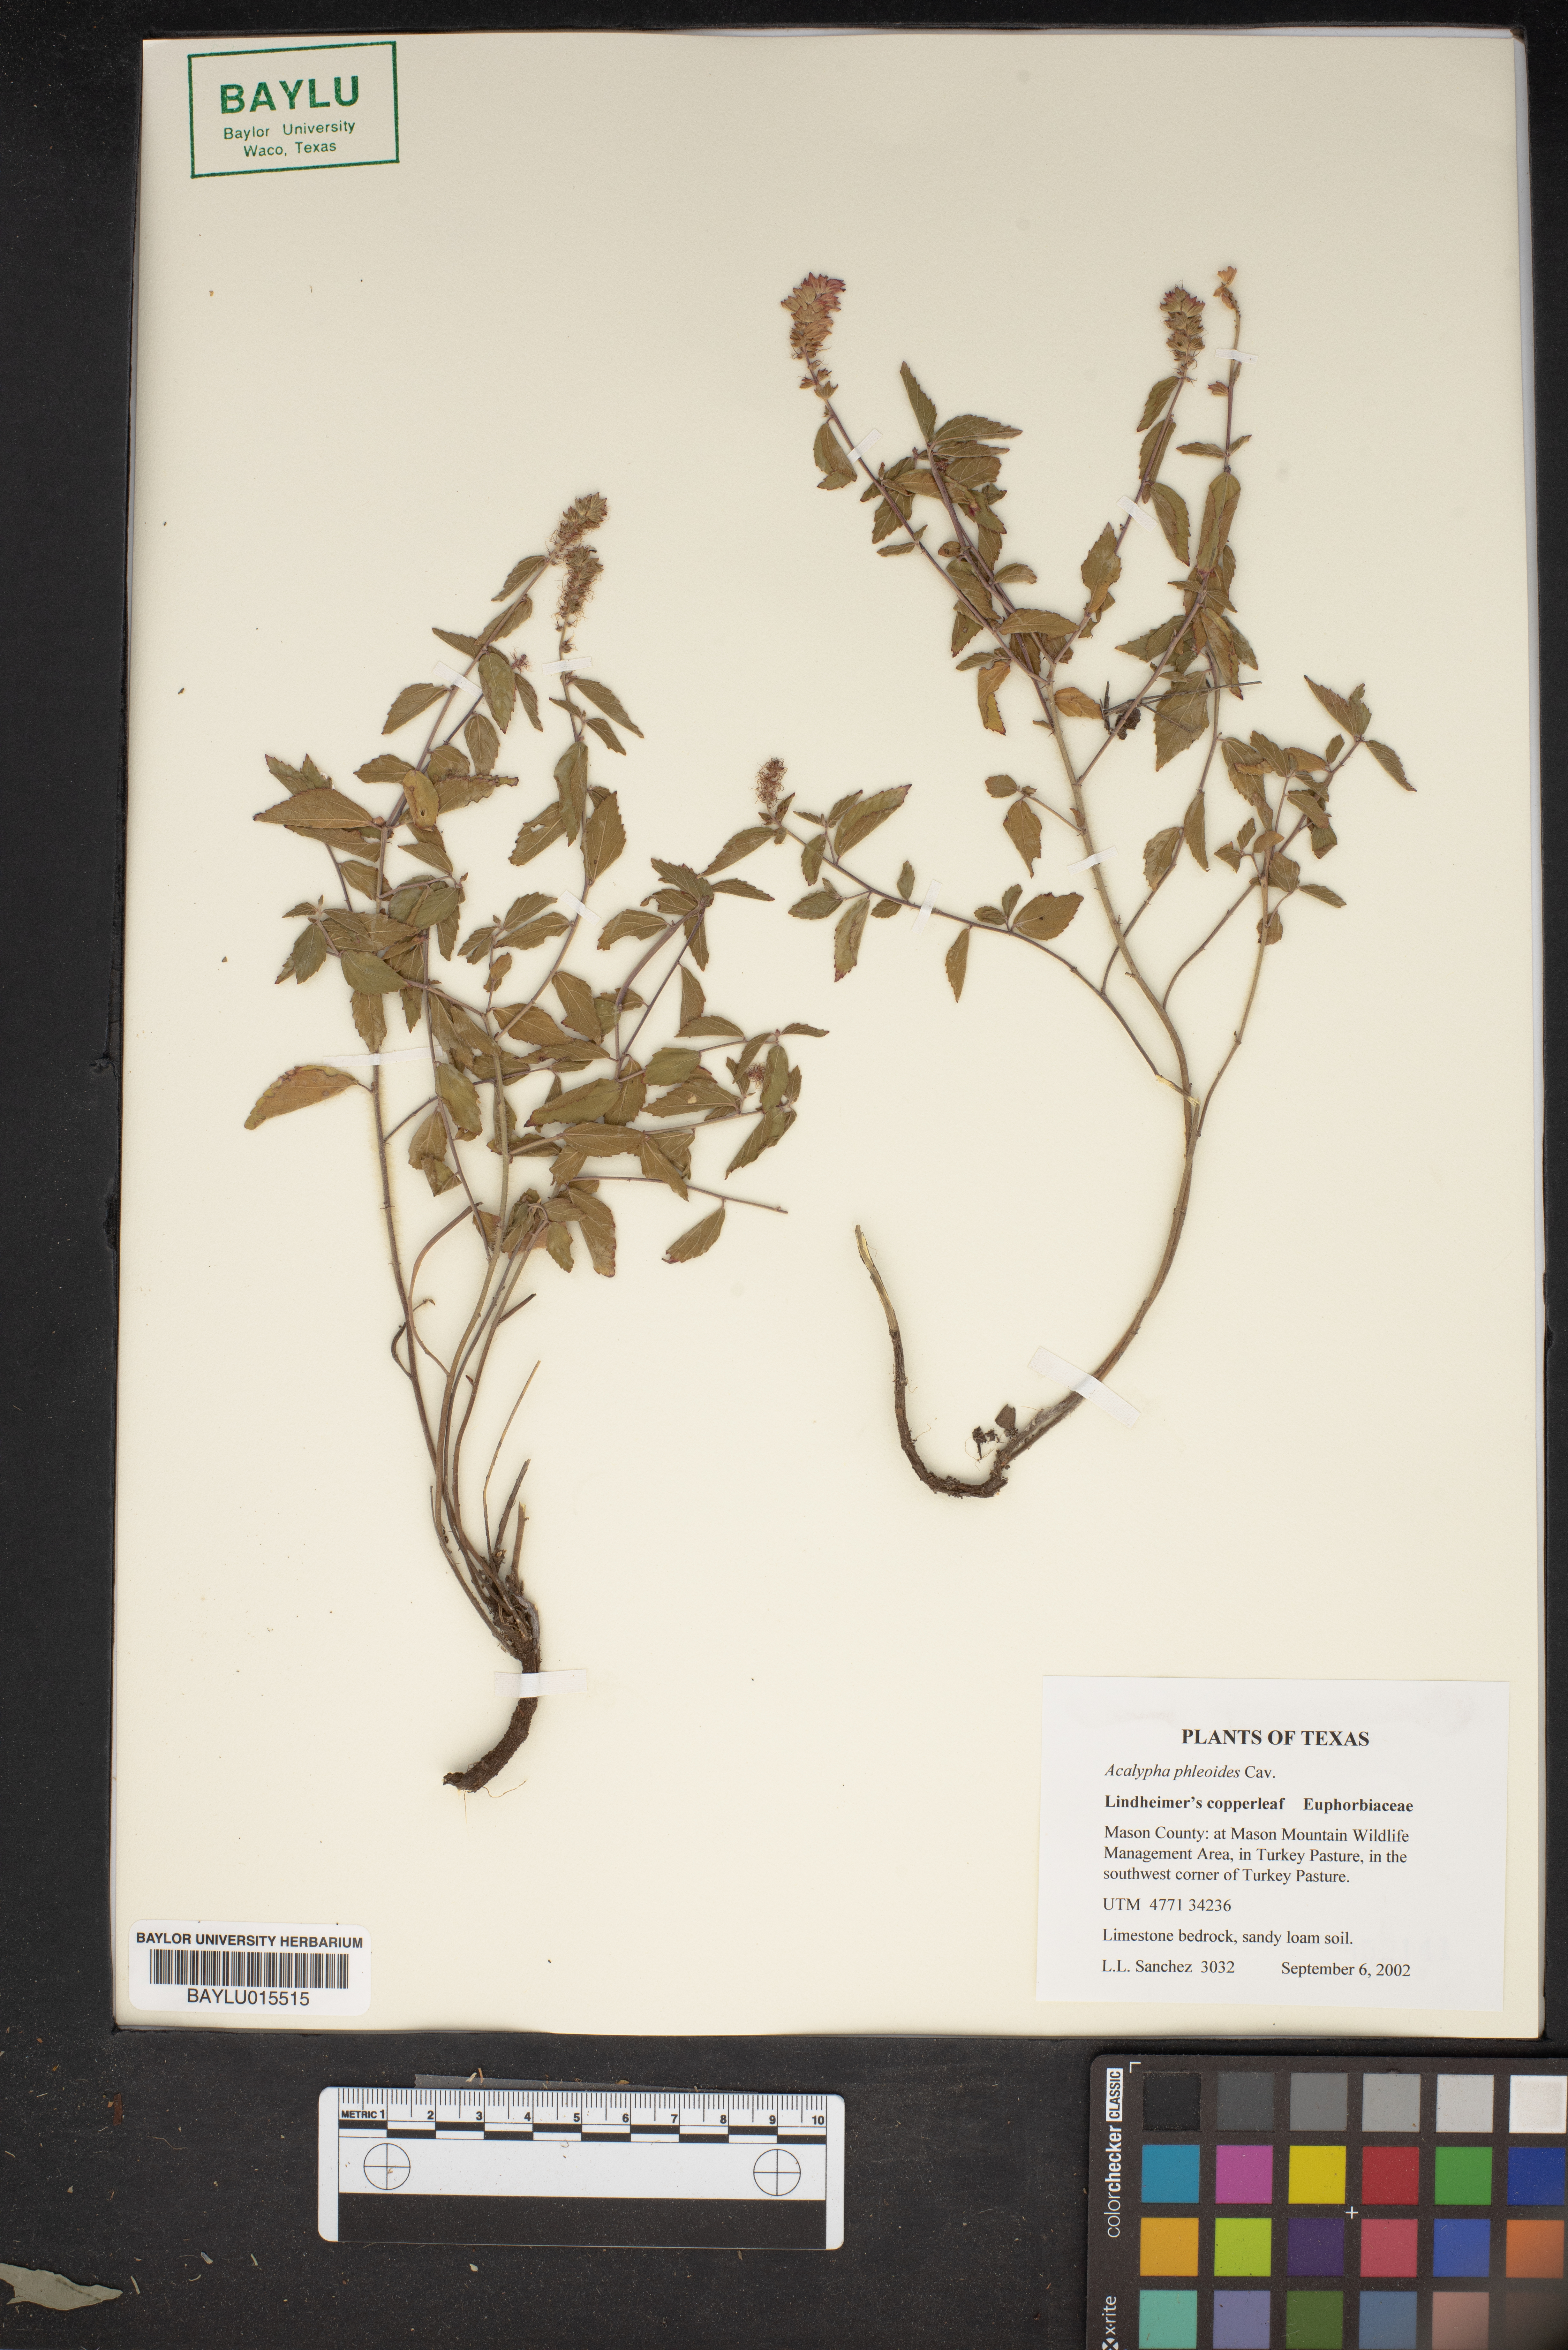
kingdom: Plantae
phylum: Tracheophyta
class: Magnoliopsida
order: Malpighiales
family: Euphorbiaceae
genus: Acalypha
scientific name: Acalypha phleoides
